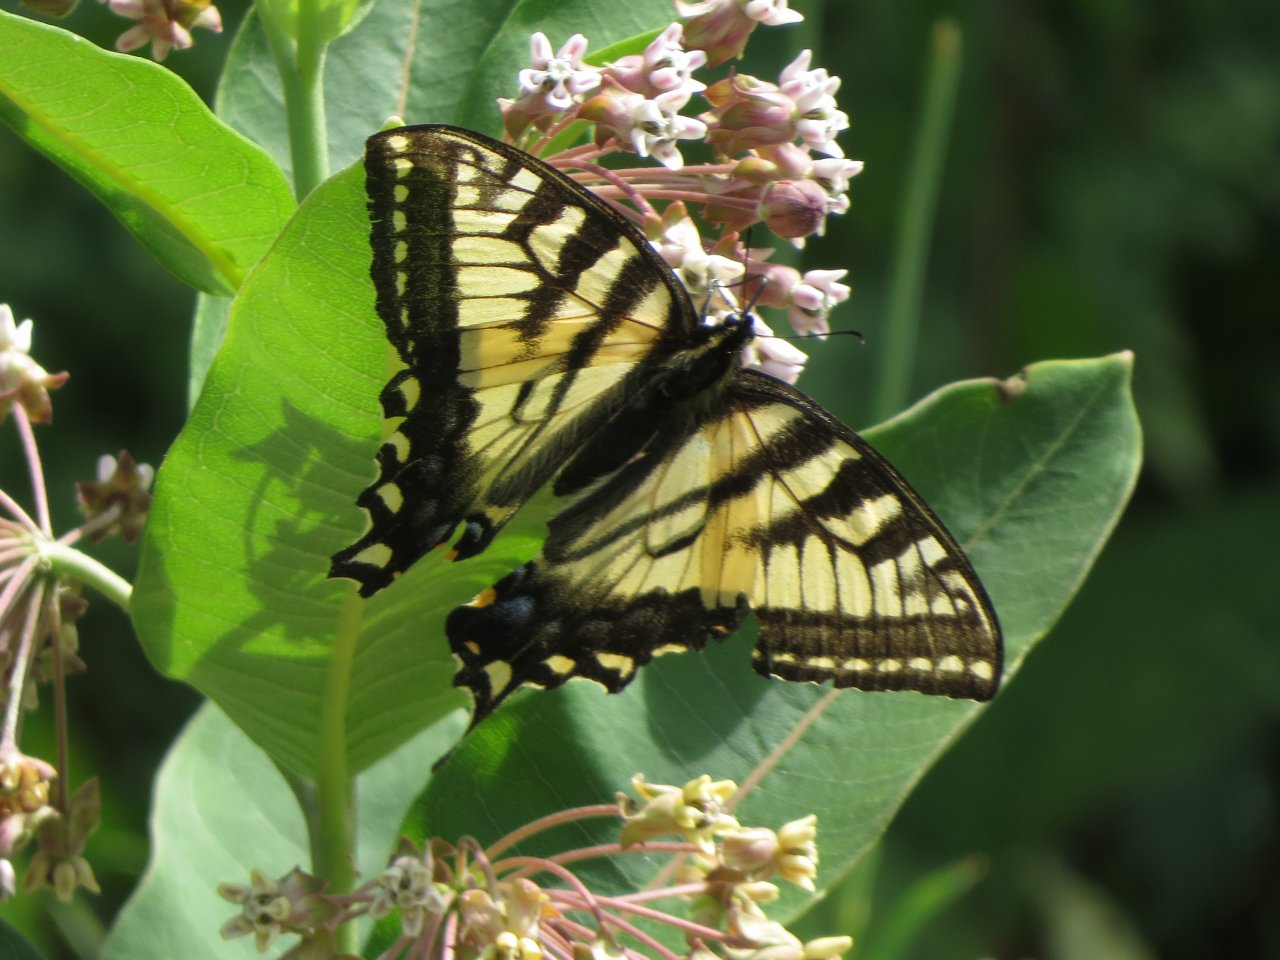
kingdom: Animalia
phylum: Arthropoda
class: Insecta
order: Lepidoptera
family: Papilionidae
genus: Pterourus
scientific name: Pterourus canadensis
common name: Canadian Tiger Swallowtail
